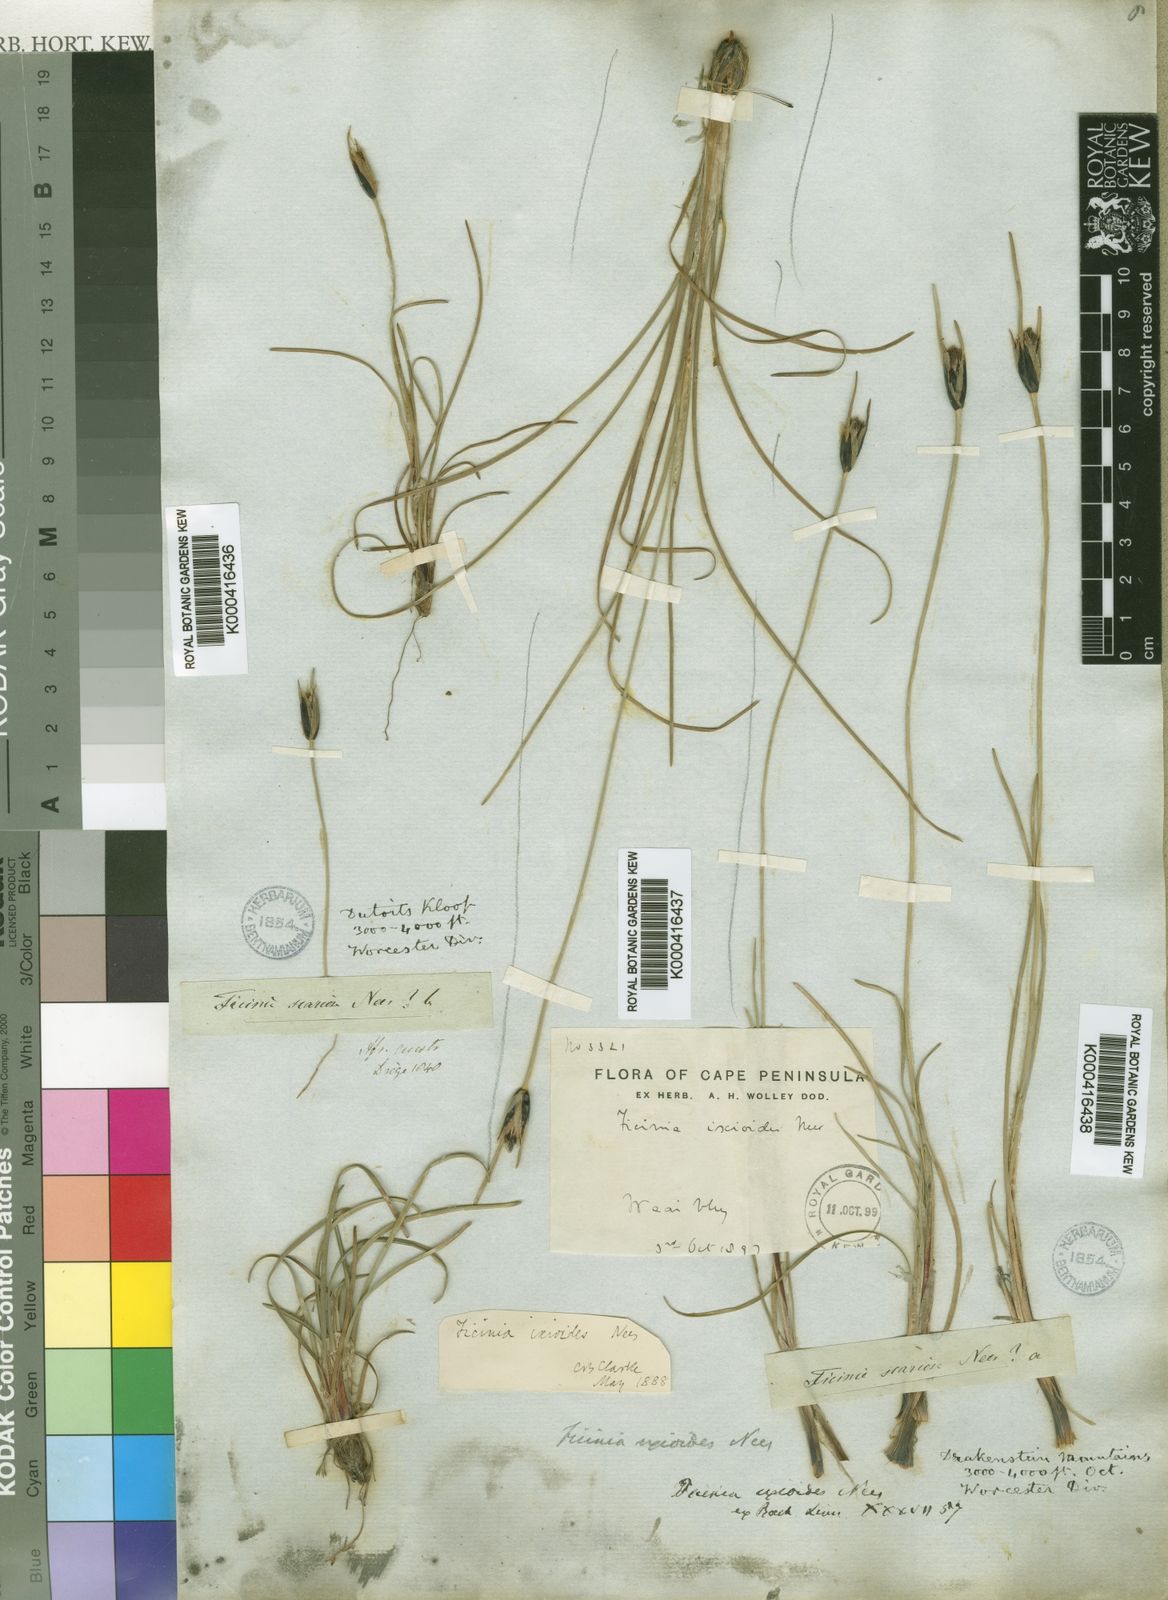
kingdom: Plantae
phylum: Tracheophyta
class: Liliopsida
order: Poales
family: Cyperaceae
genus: Ficinia
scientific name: Ficinia ixioides
